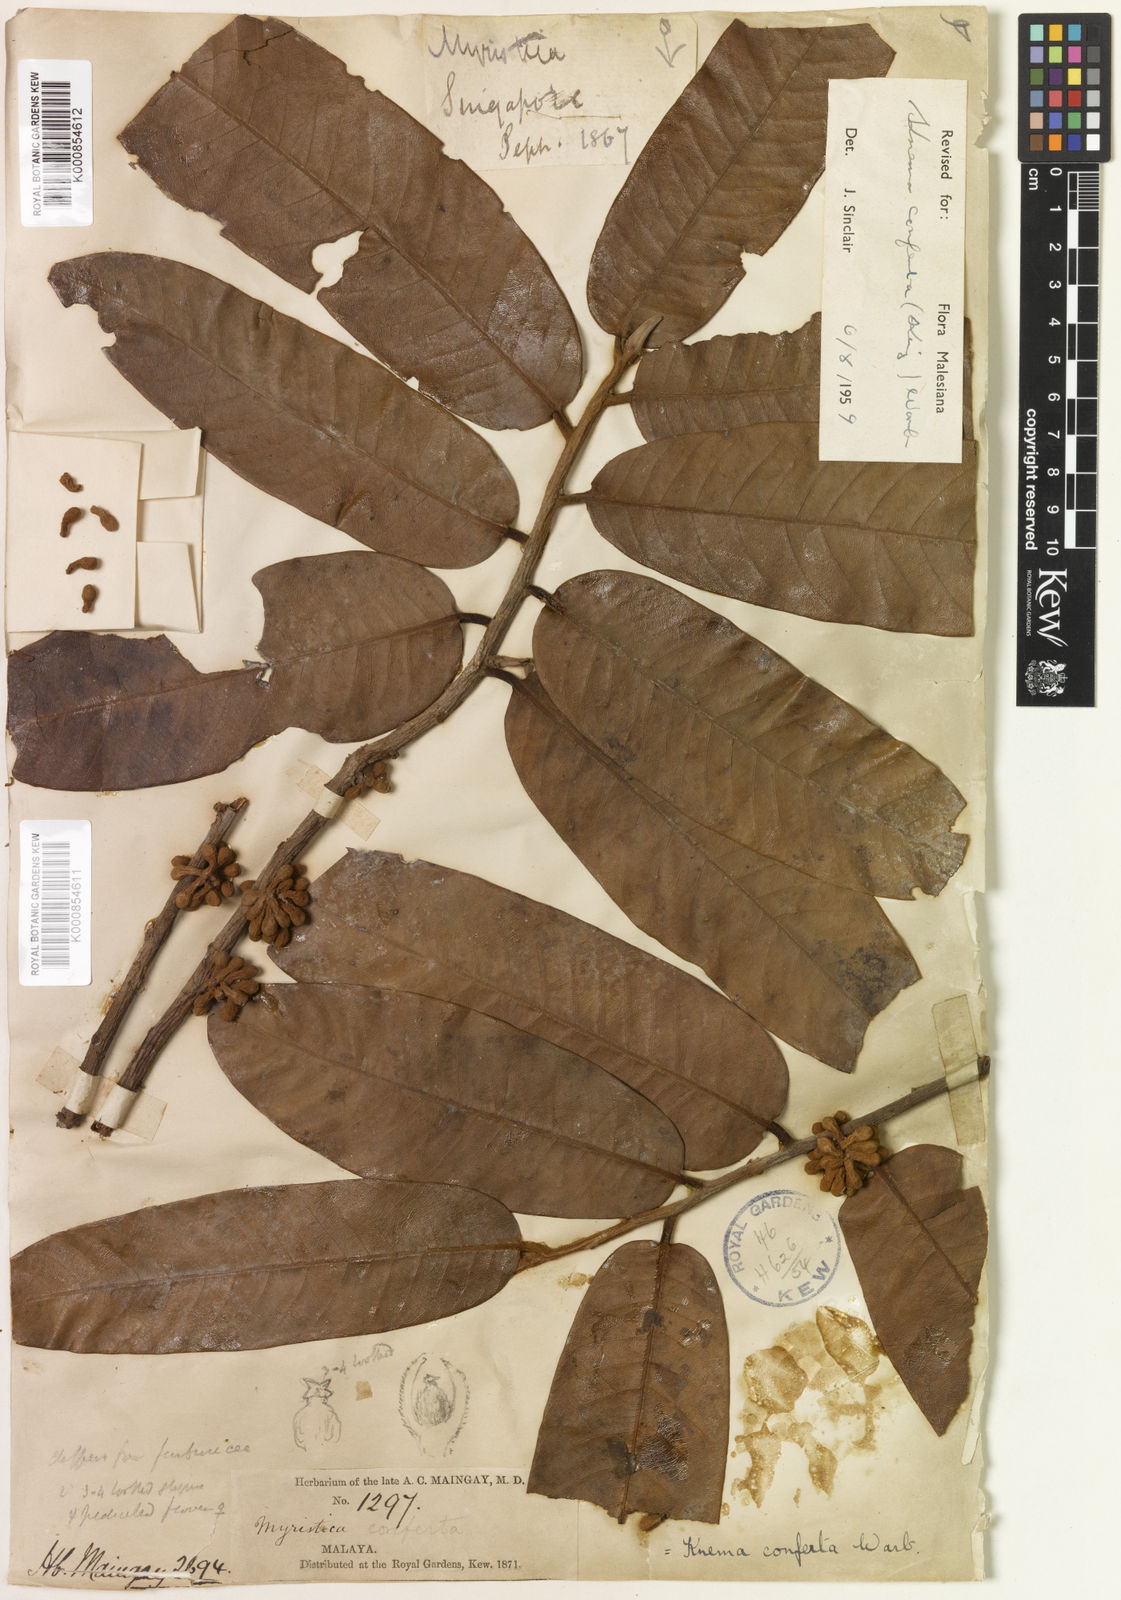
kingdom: Plantae
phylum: Tracheophyta
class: Magnoliopsida
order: Magnoliales
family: Myristicaceae
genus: Knema
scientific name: Knema conferta
